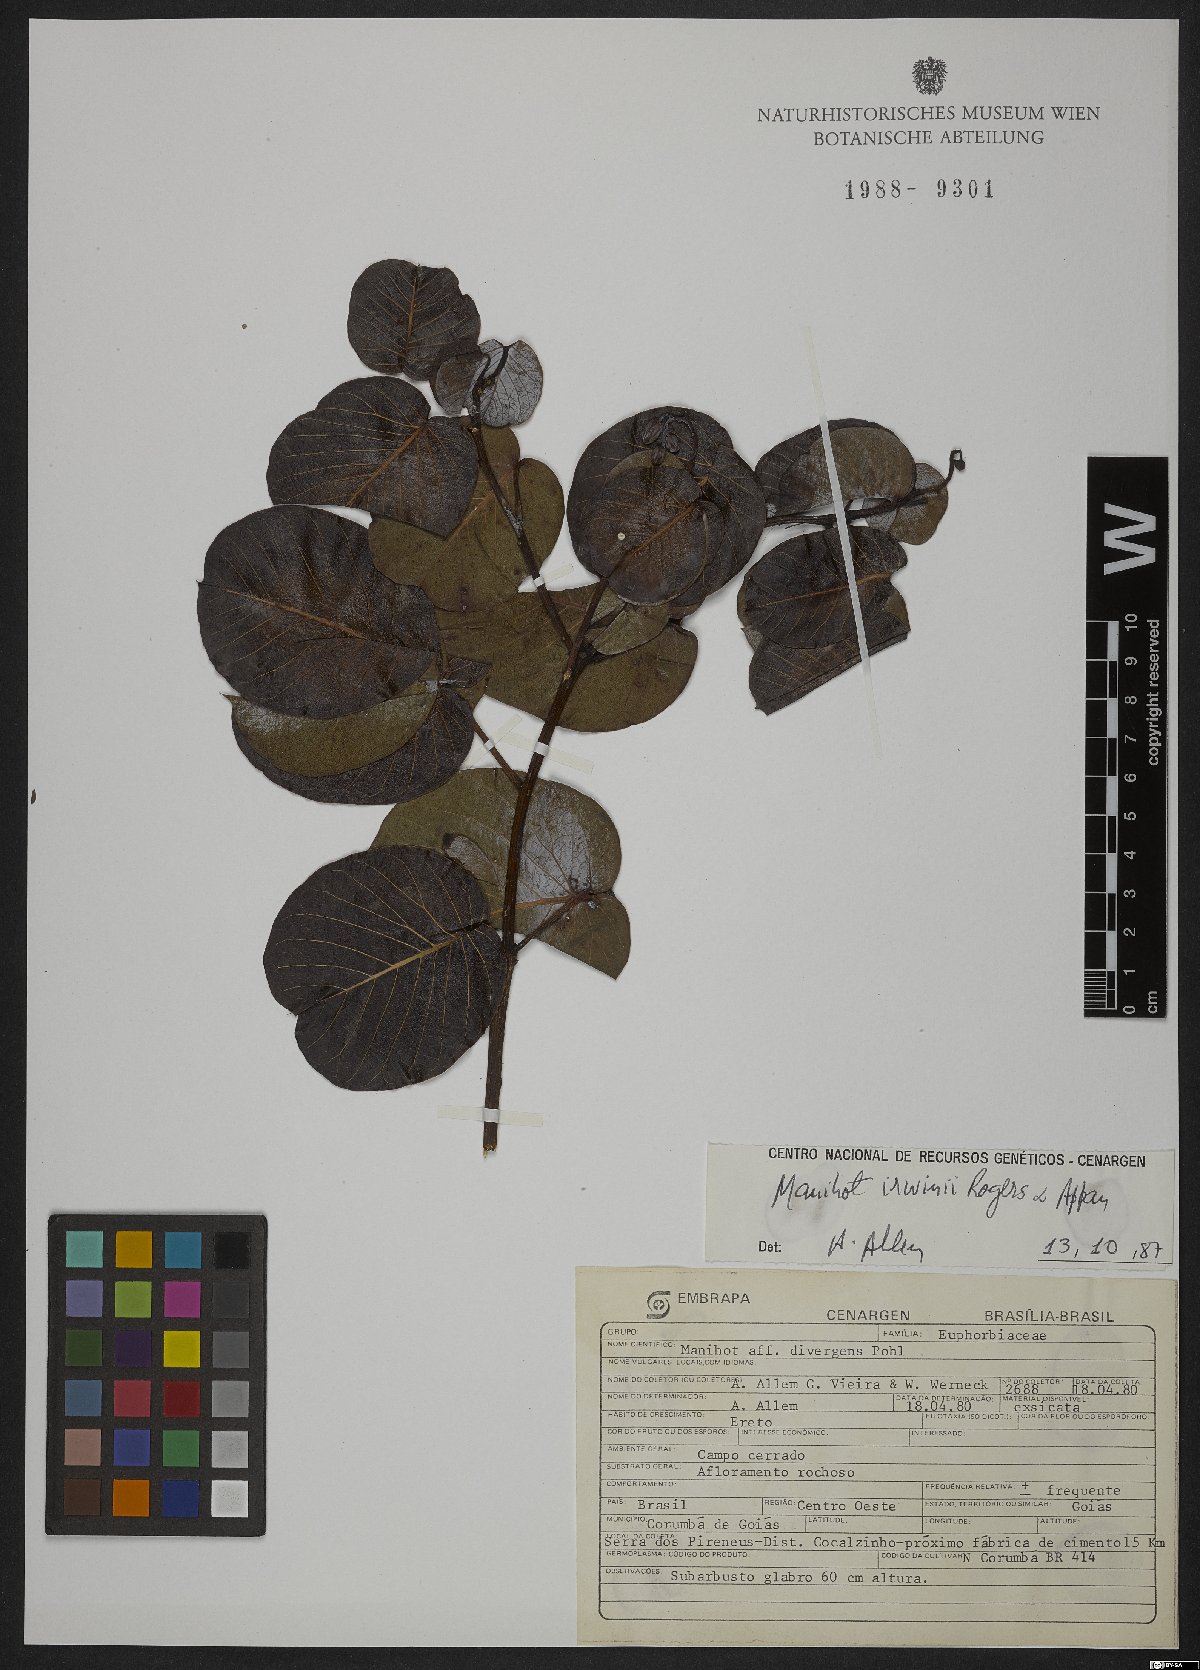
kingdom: Plantae
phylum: Tracheophyta
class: Magnoliopsida
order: Malpighiales
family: Euphorbiaceae
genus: Manihot
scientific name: Manihot irwinii
